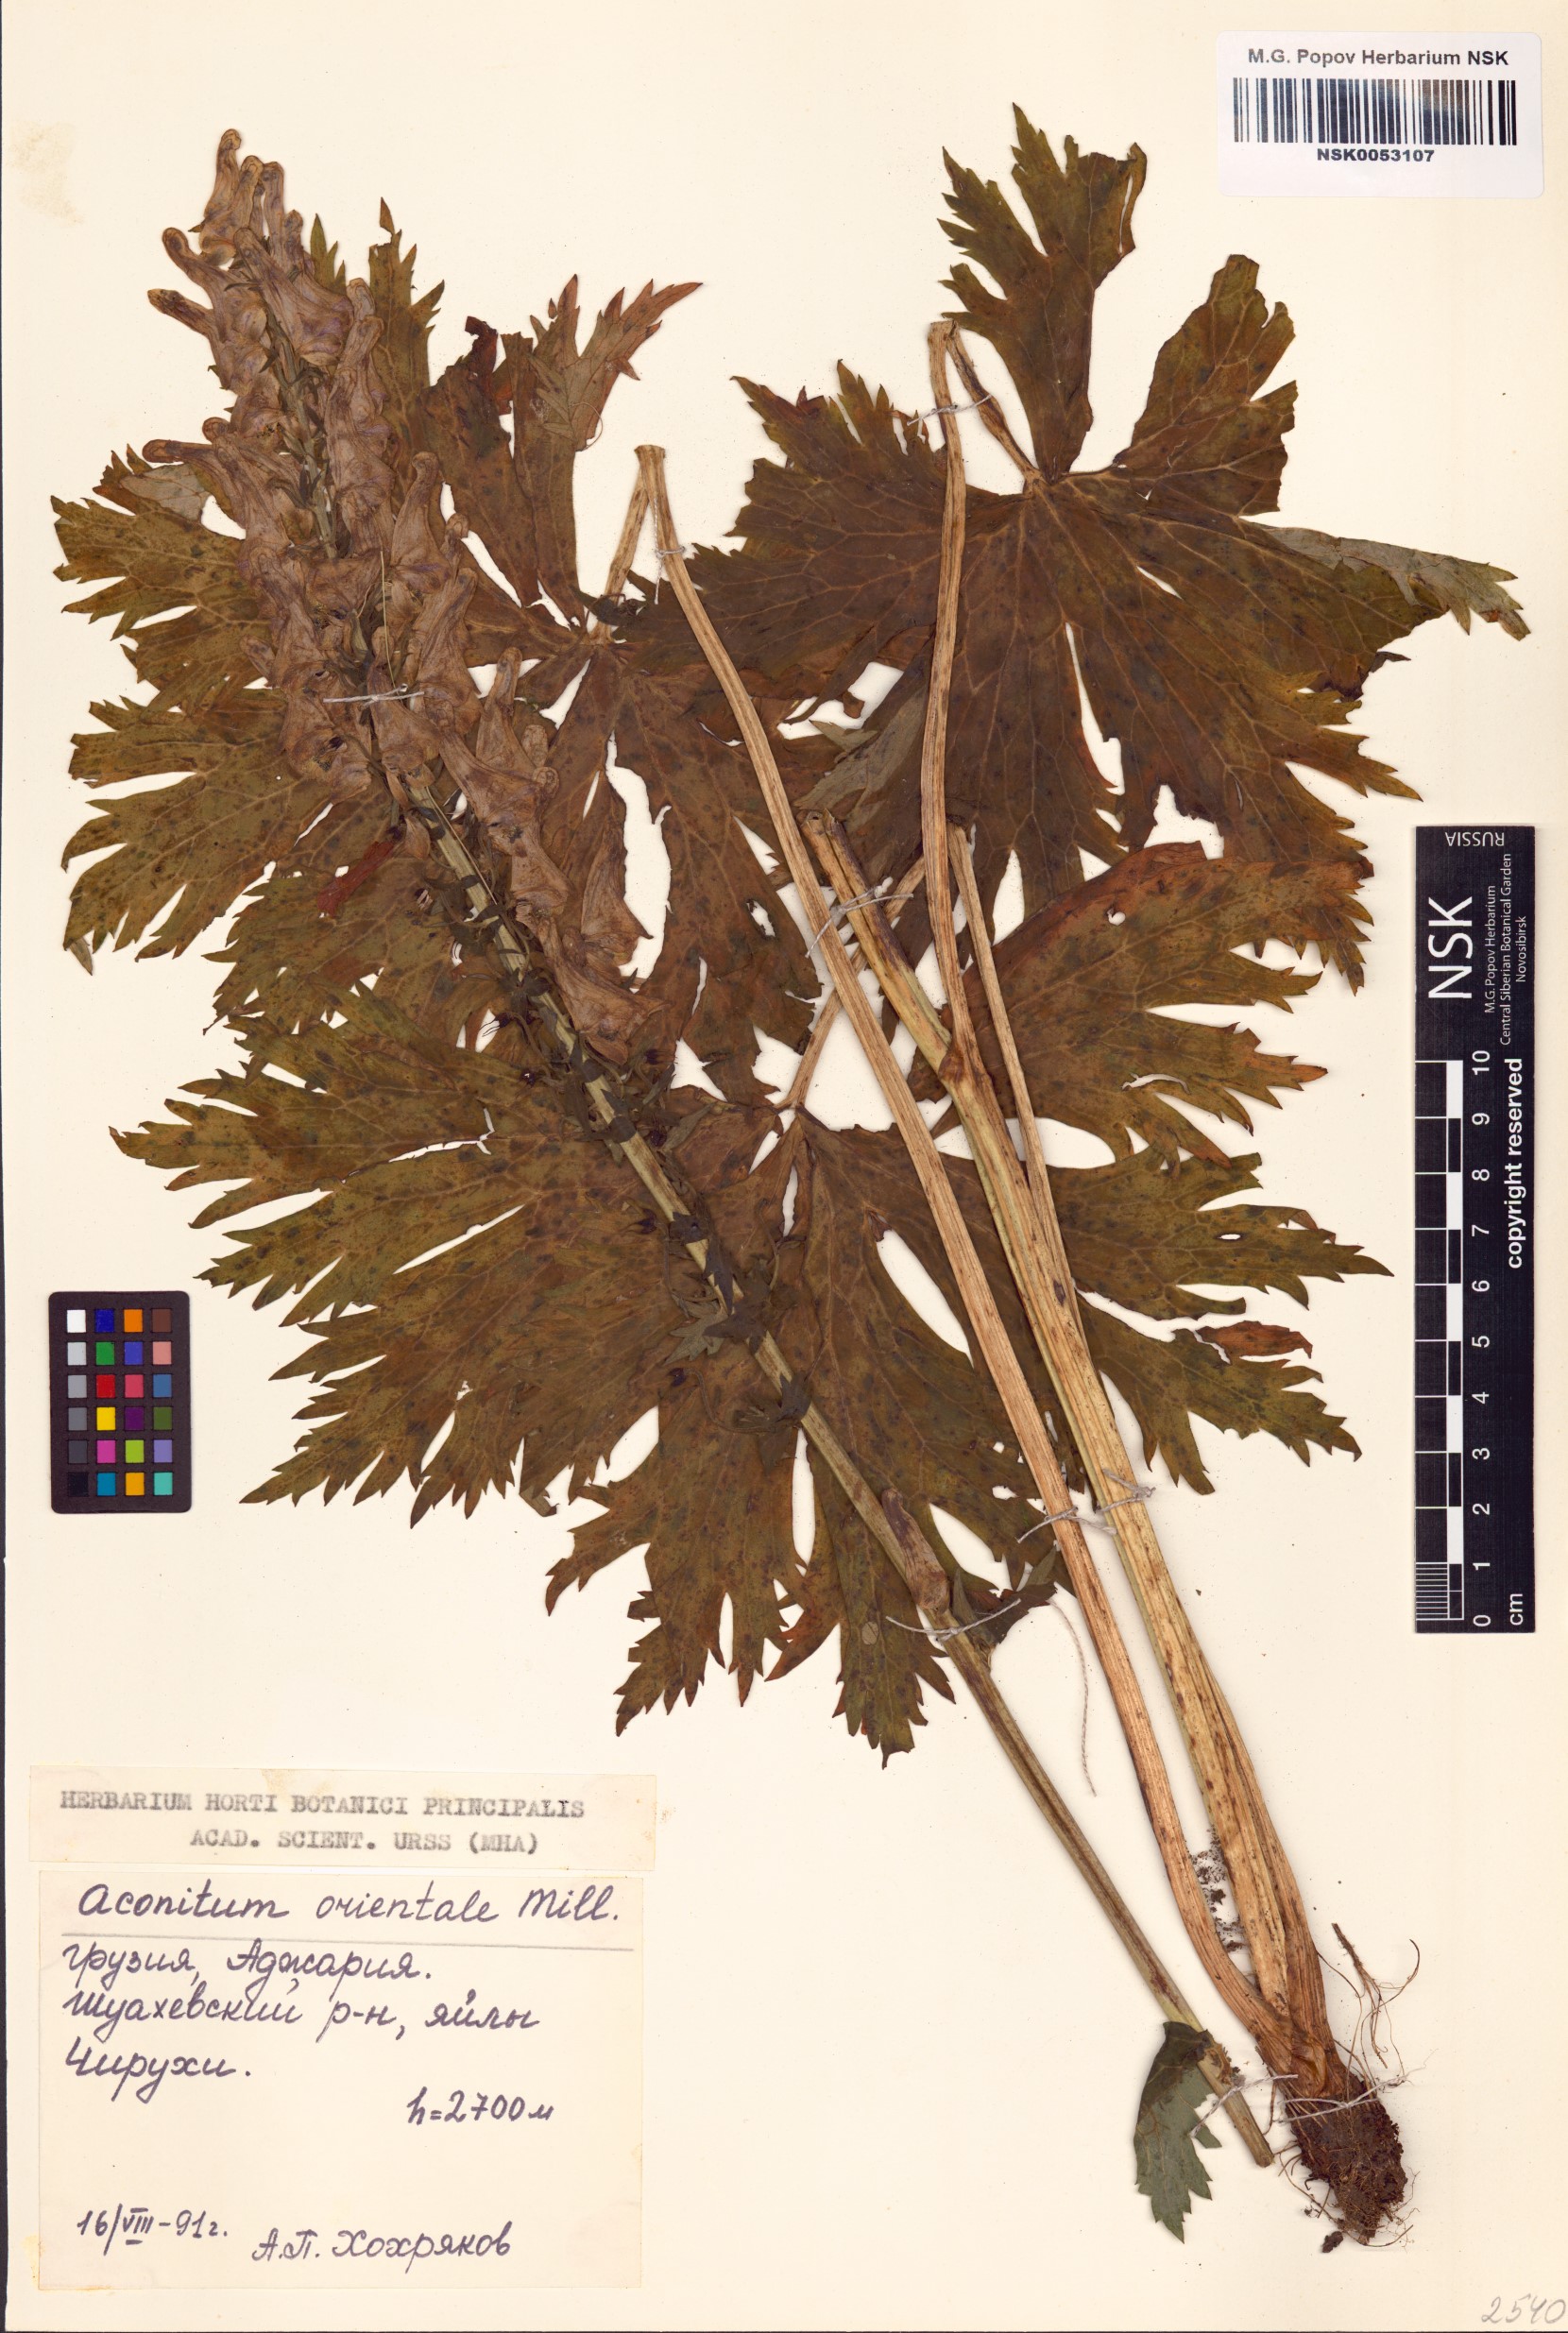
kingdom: Plantae
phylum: Tracheophyta
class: Magnoliopsida
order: Ranunculales
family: Ranunculaceae
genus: Aconitum
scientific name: Aconitum orientale
